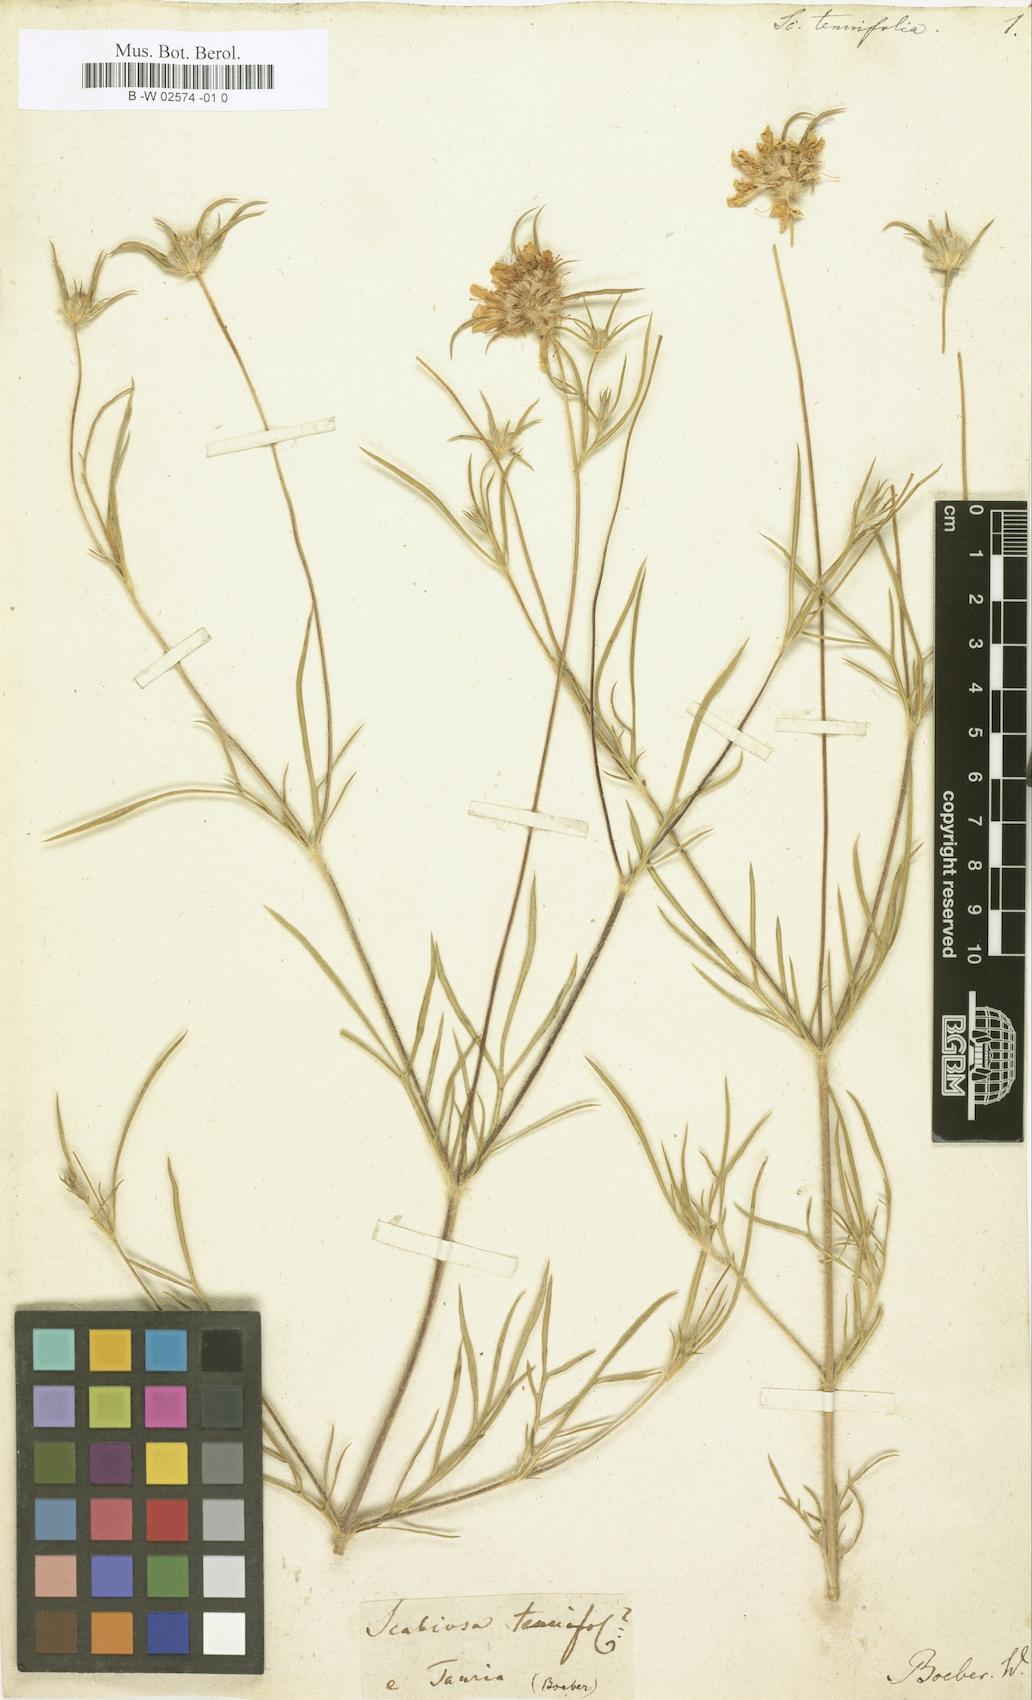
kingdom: Plantae
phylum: Tracheophyta
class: Magnoliopsida
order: Dipsacales
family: Caprifoliaceae
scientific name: Caprifoliaceae
